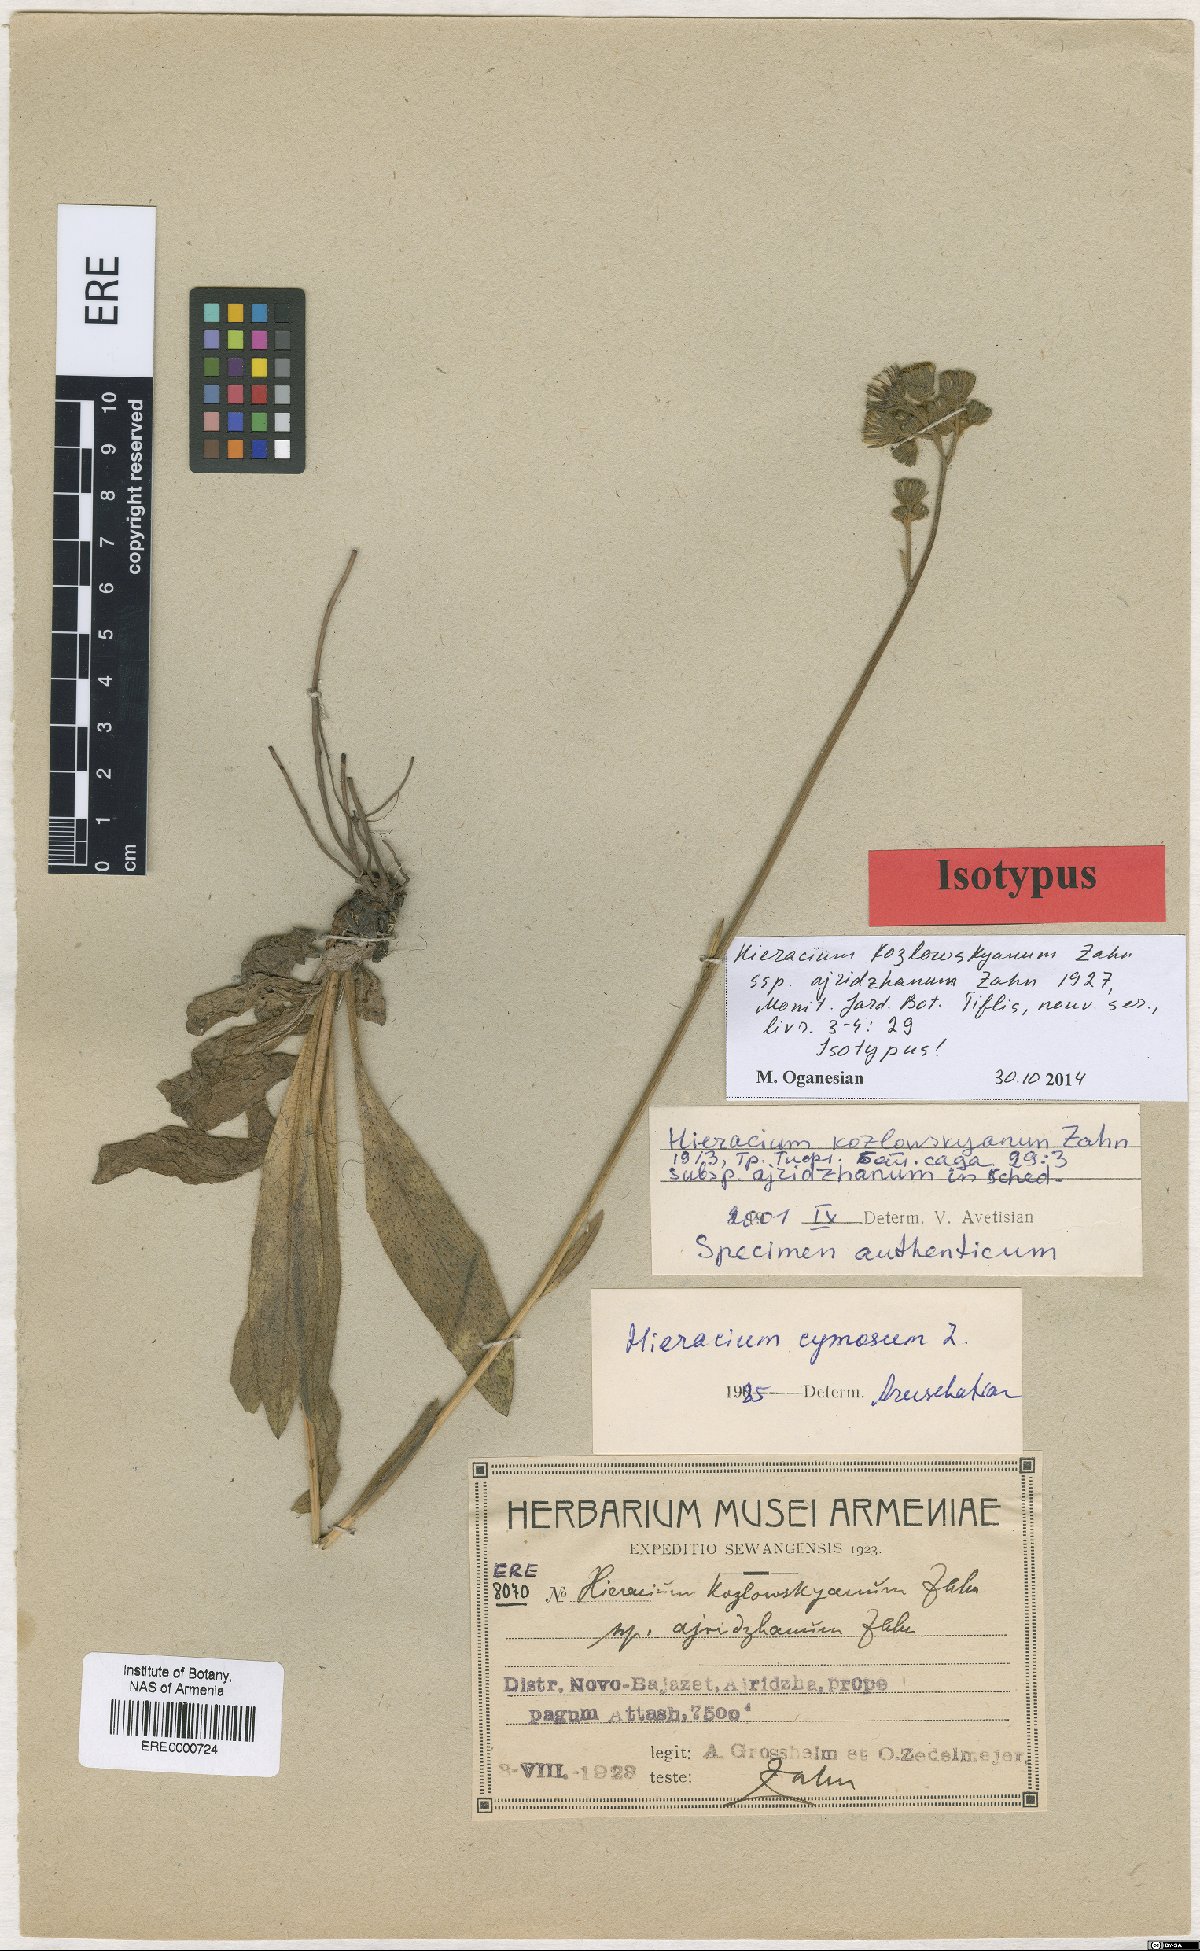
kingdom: Plantae
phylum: Tracheophyta
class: Magnoliopsida
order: Asterales
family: Asteraceae
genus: Pilosella
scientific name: Pilosella kozlowskyana
